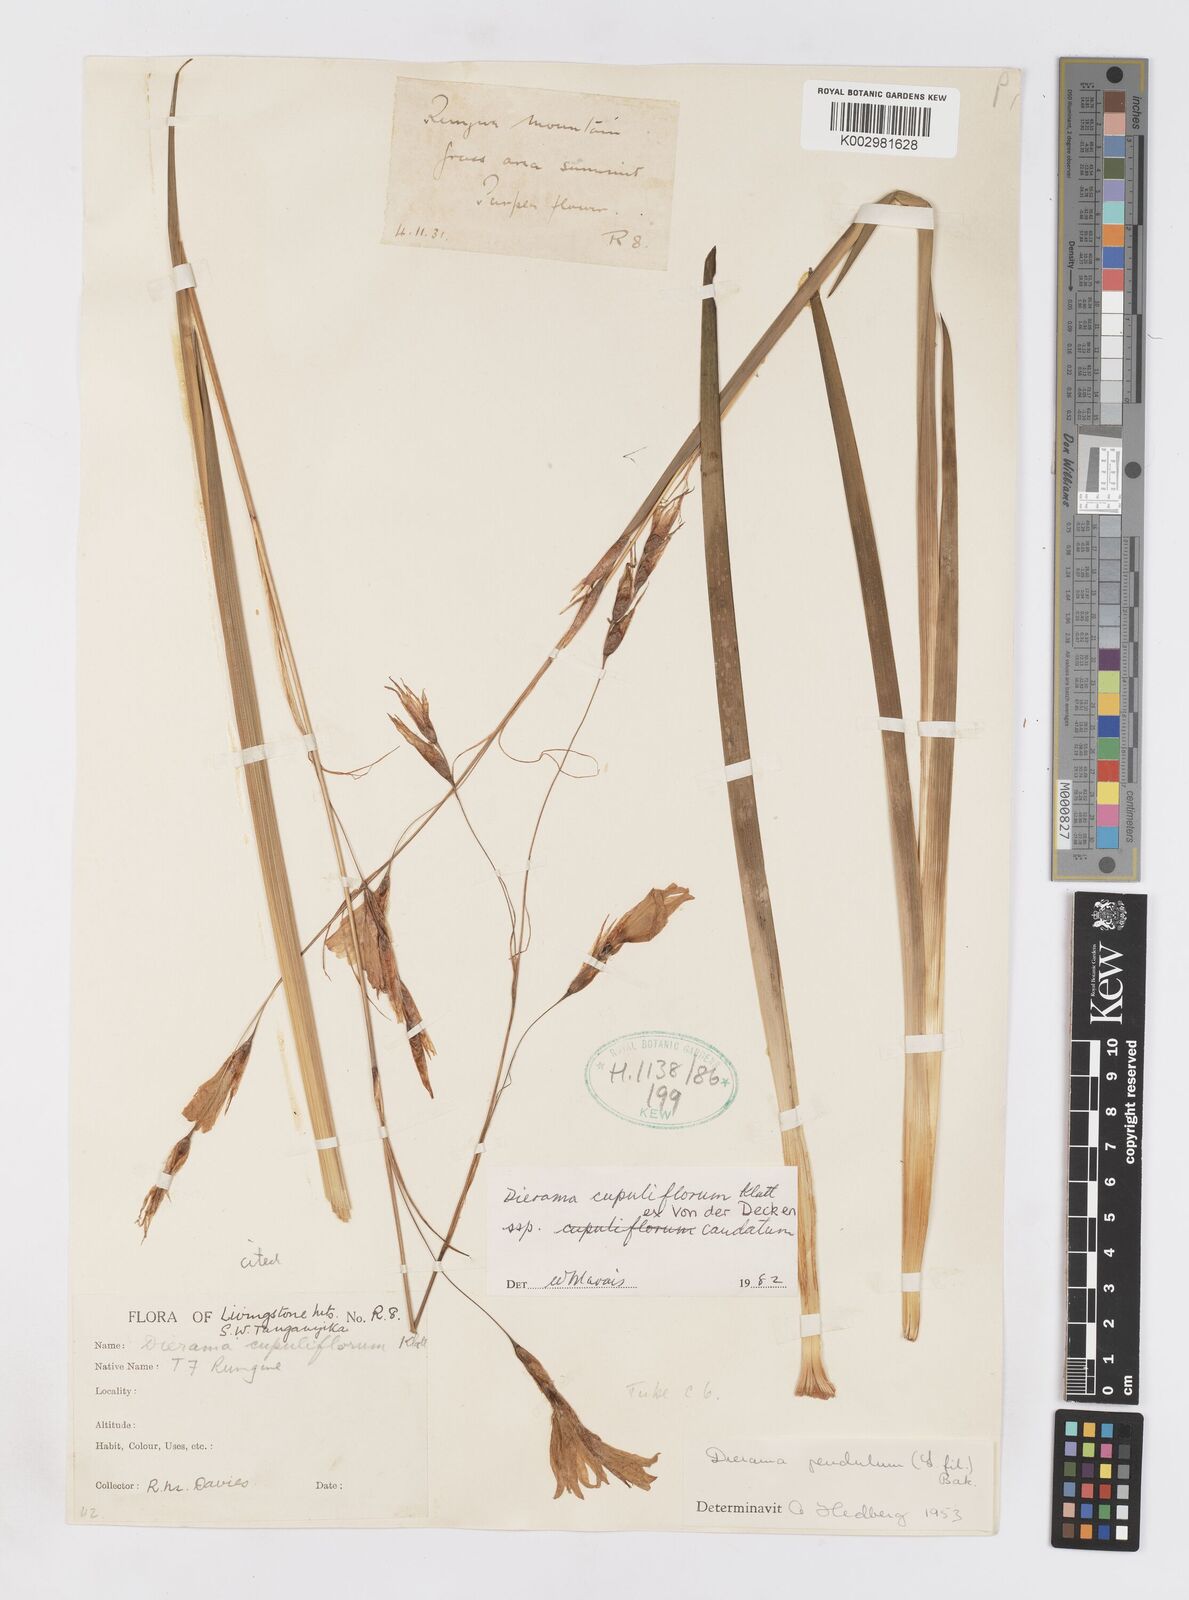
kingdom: Plantae
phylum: Tracheophyta
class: Liliopsida
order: Asparagales
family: Iridaceae
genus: Dierama
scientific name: Dierama cupuliflorum
